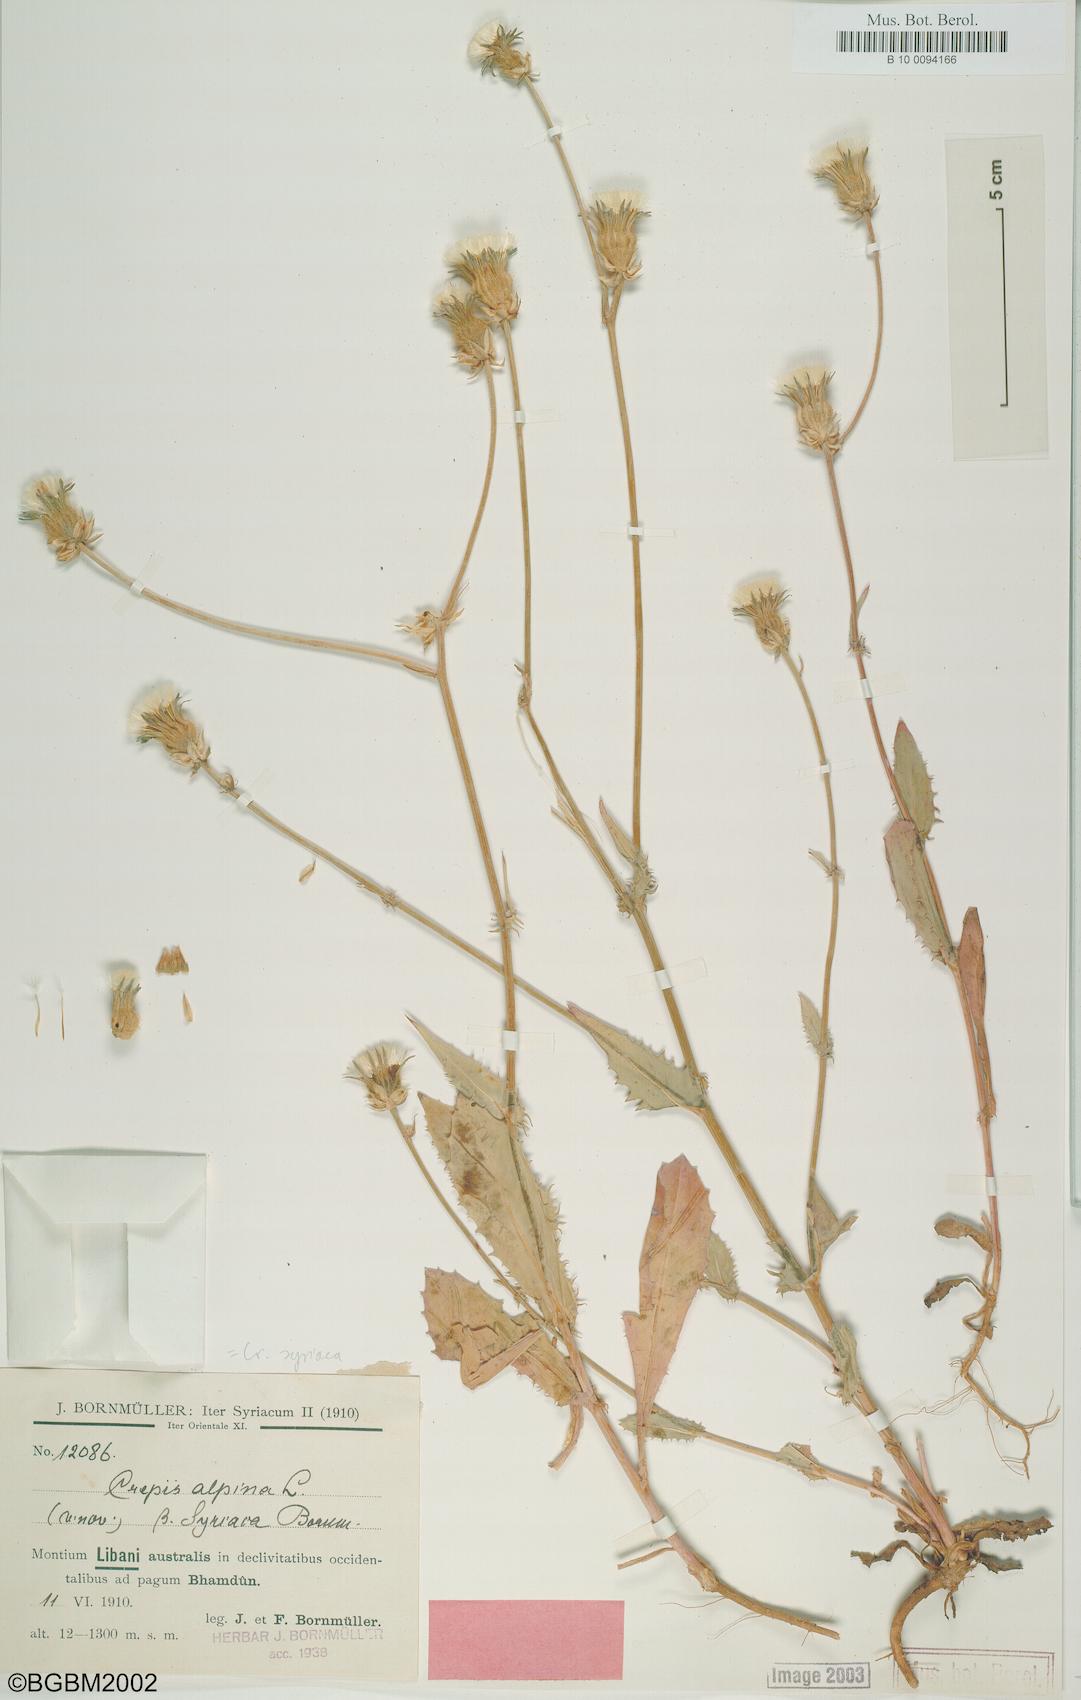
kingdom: Plantae
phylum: Tracheophyta
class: Magnoliopsida
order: Asterales
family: Asteraceae
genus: Crepis
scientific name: Crepis syriaca
